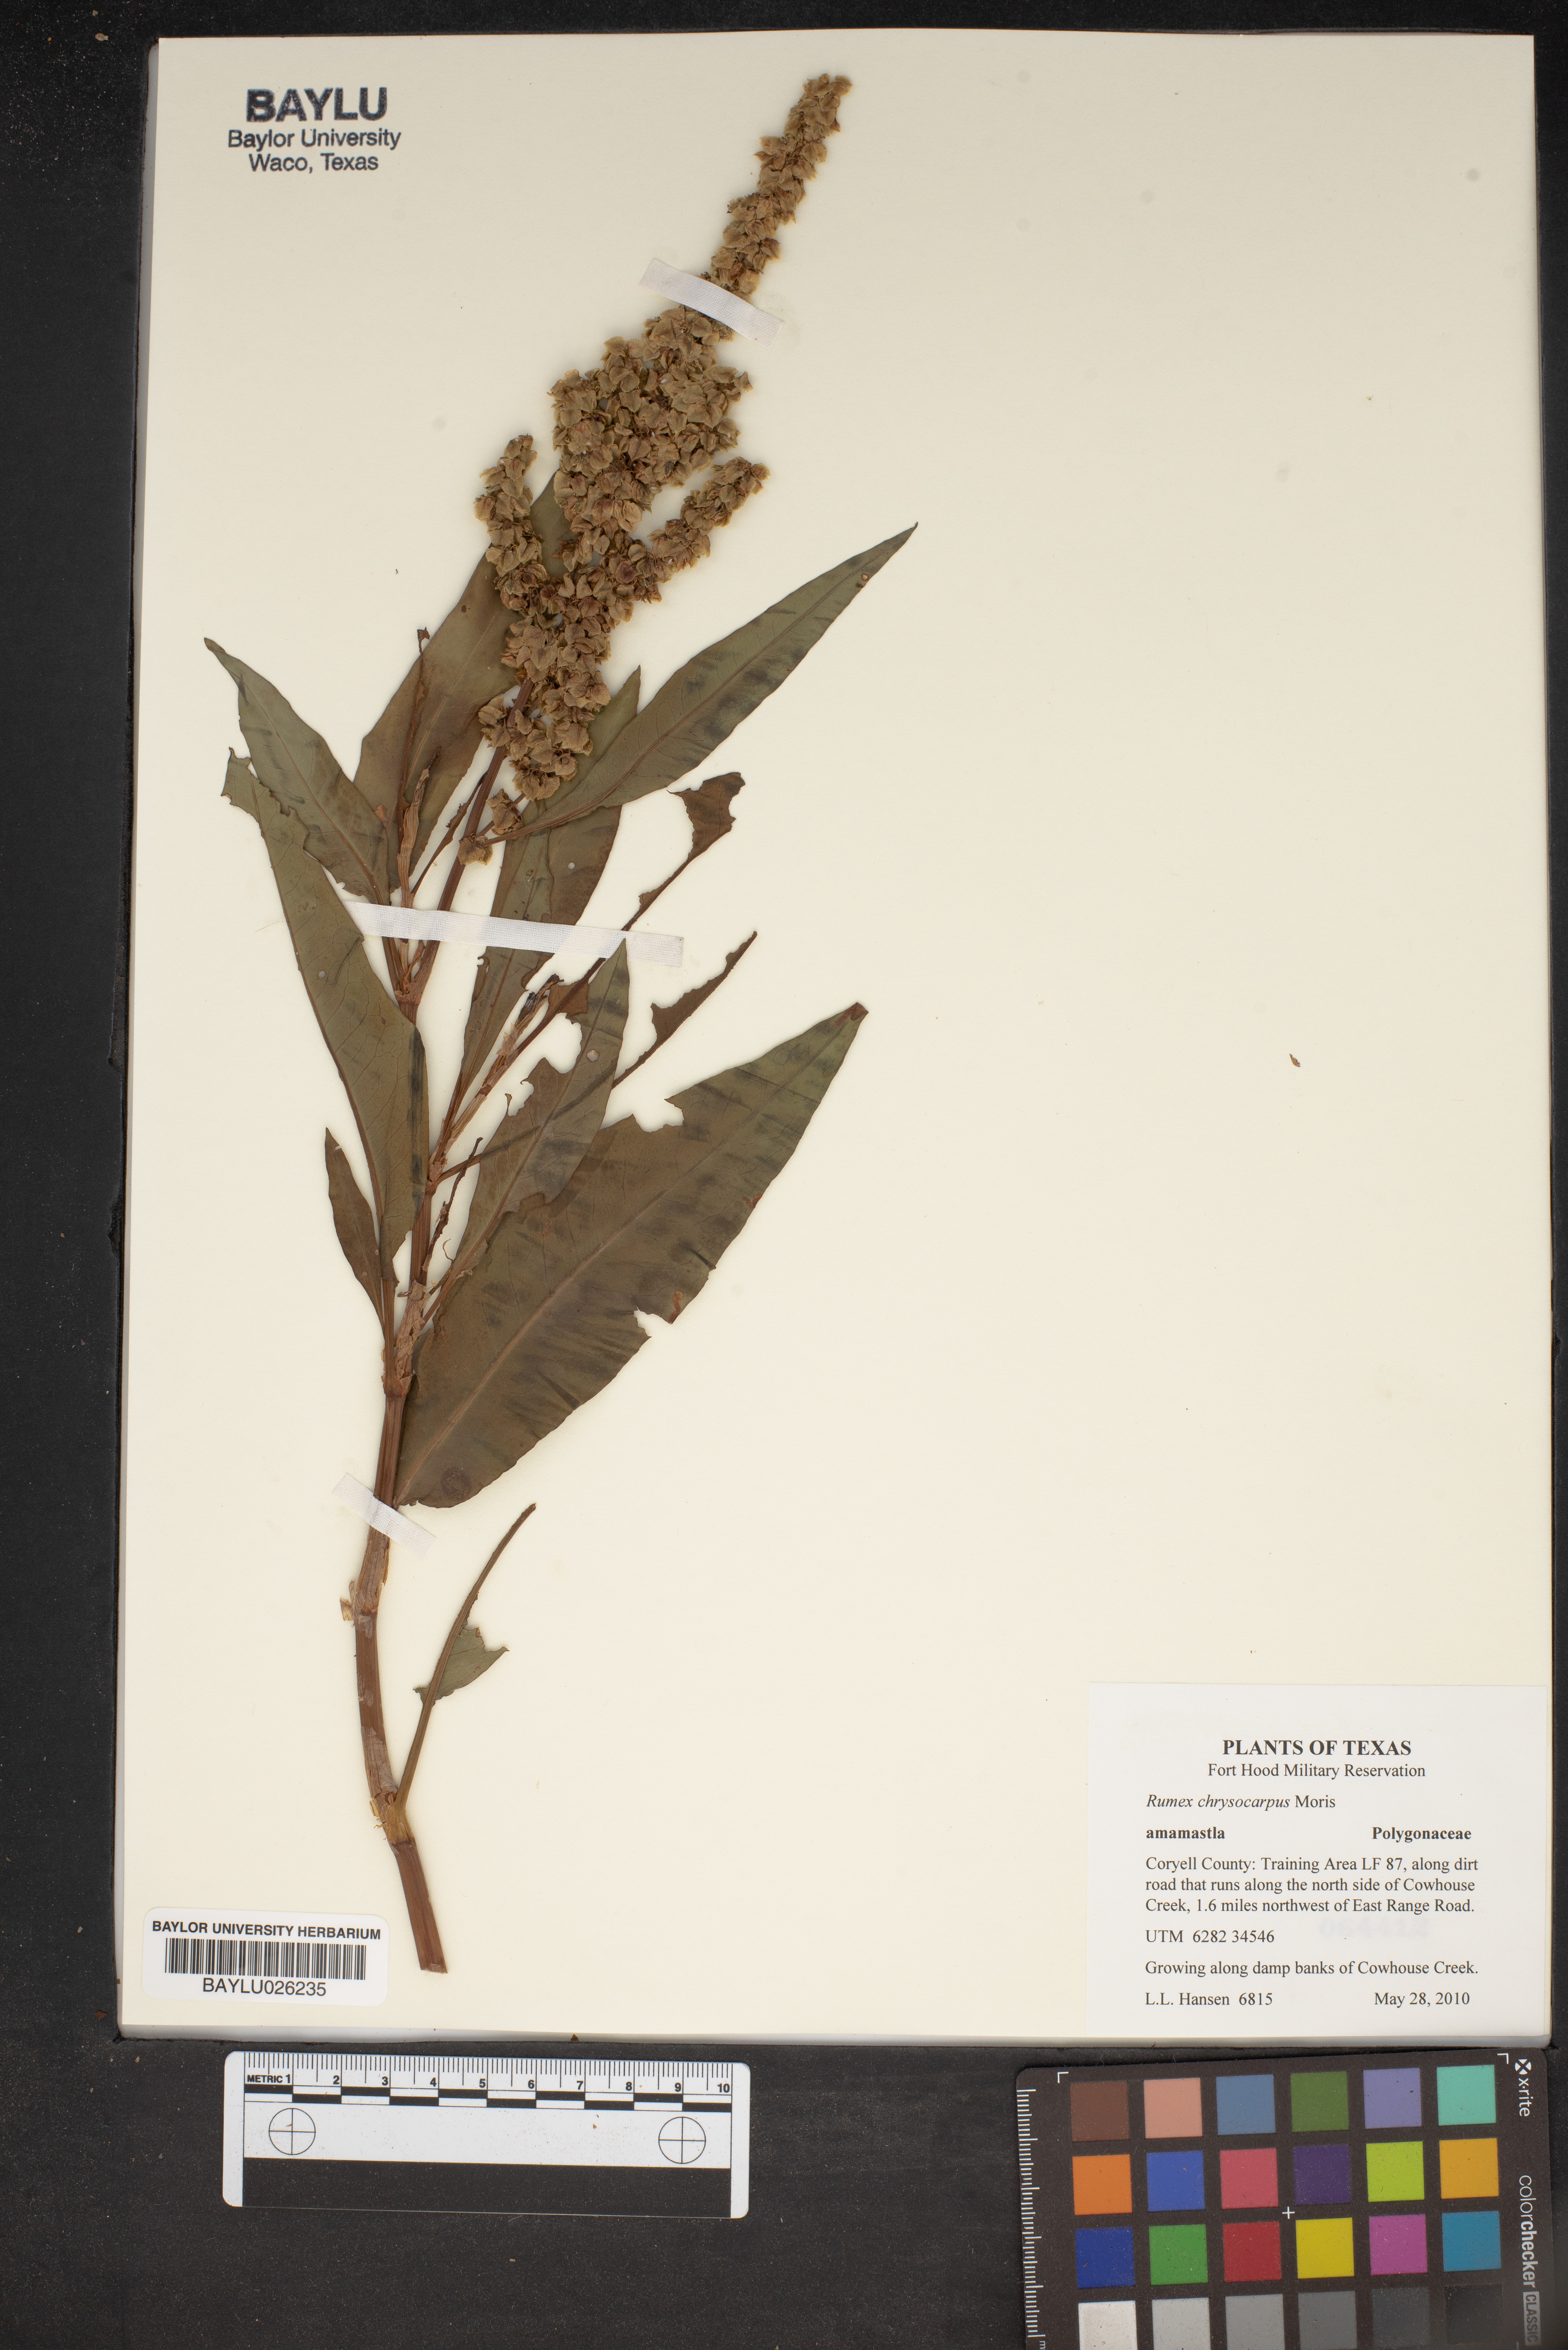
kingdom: Plantae
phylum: Tracheophyta
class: Magnoliopsida
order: Caryophyllales
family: Polygonaceae
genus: Rumex
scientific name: Rumex chrysocarpus
